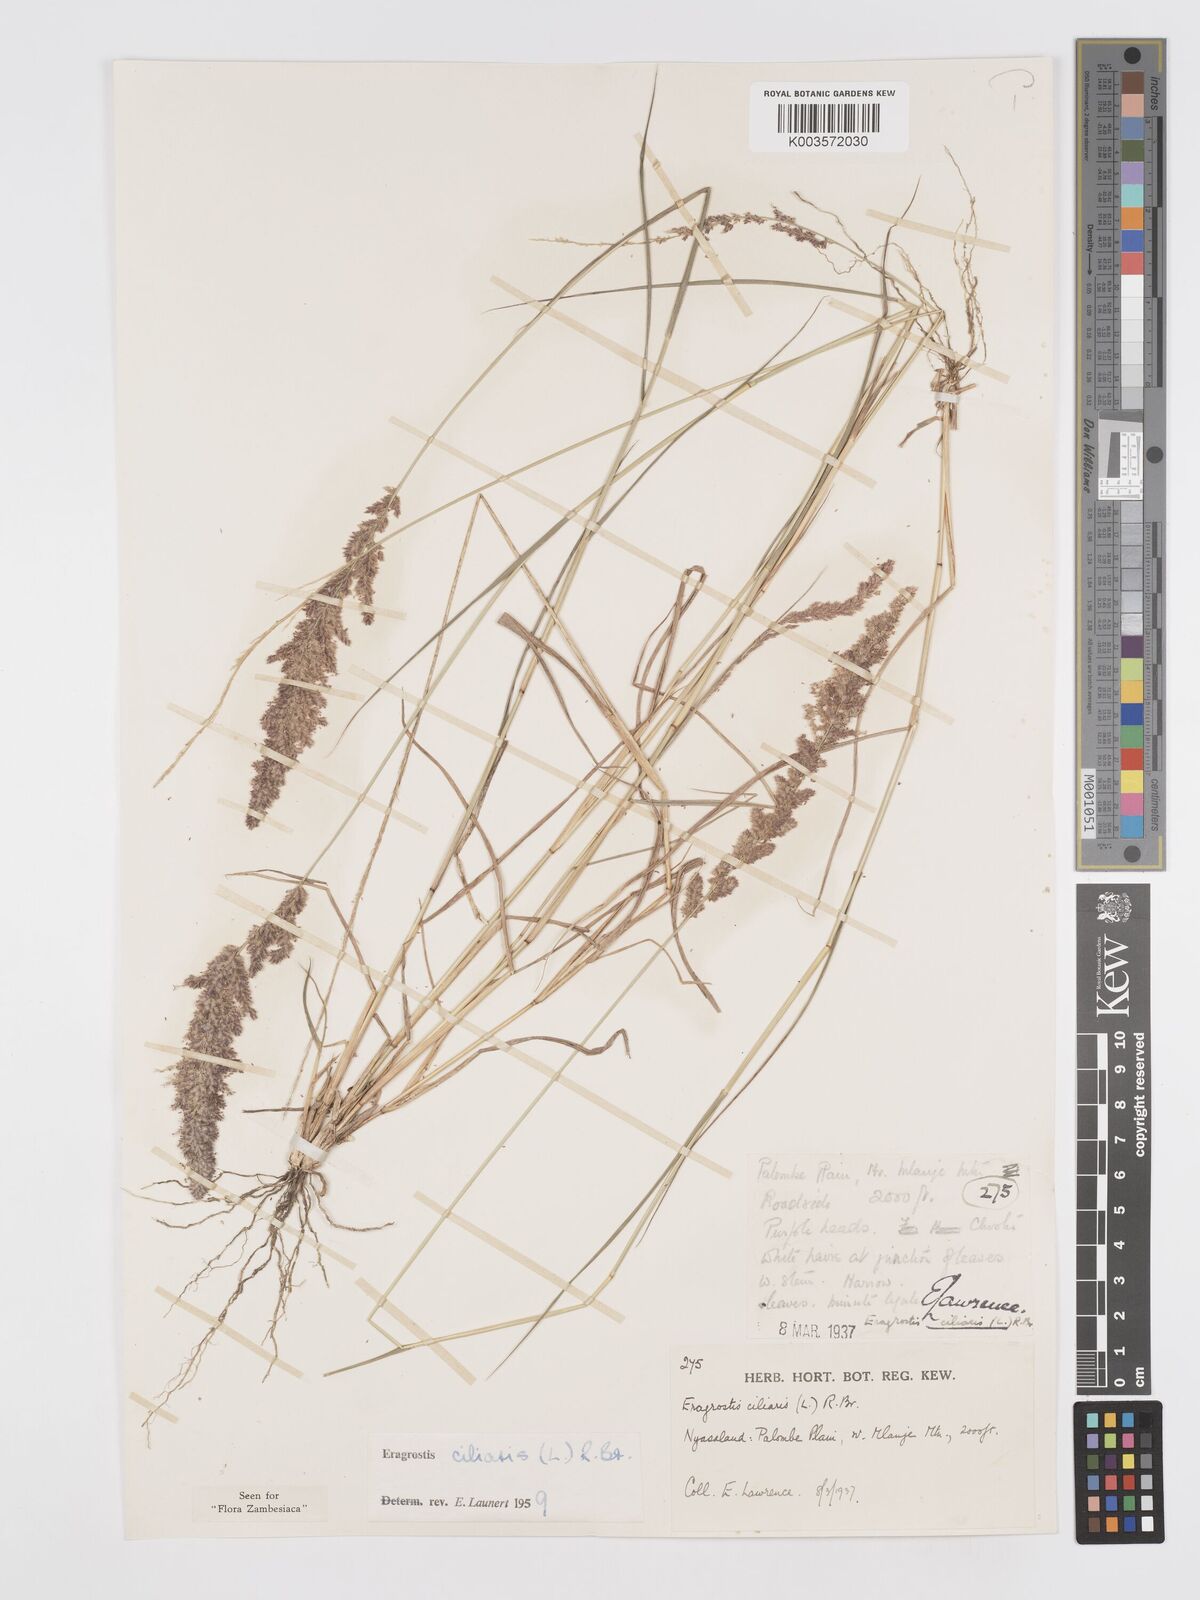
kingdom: Plantae
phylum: Tracheophyta
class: Liliopsida
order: Poales
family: Poaceae
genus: Eragrostis
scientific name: Eragrostis ciliaris
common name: Gophertail lovegrass
